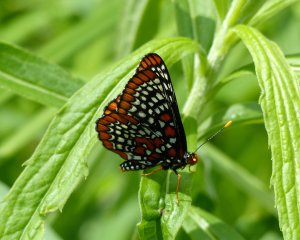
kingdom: Animalia
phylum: Arthropoda
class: Insecta
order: Lepidoptera
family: Nymphalidae
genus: Euphydryas
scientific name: Euphydryas phaeton
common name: Baltimore Checkerspot
